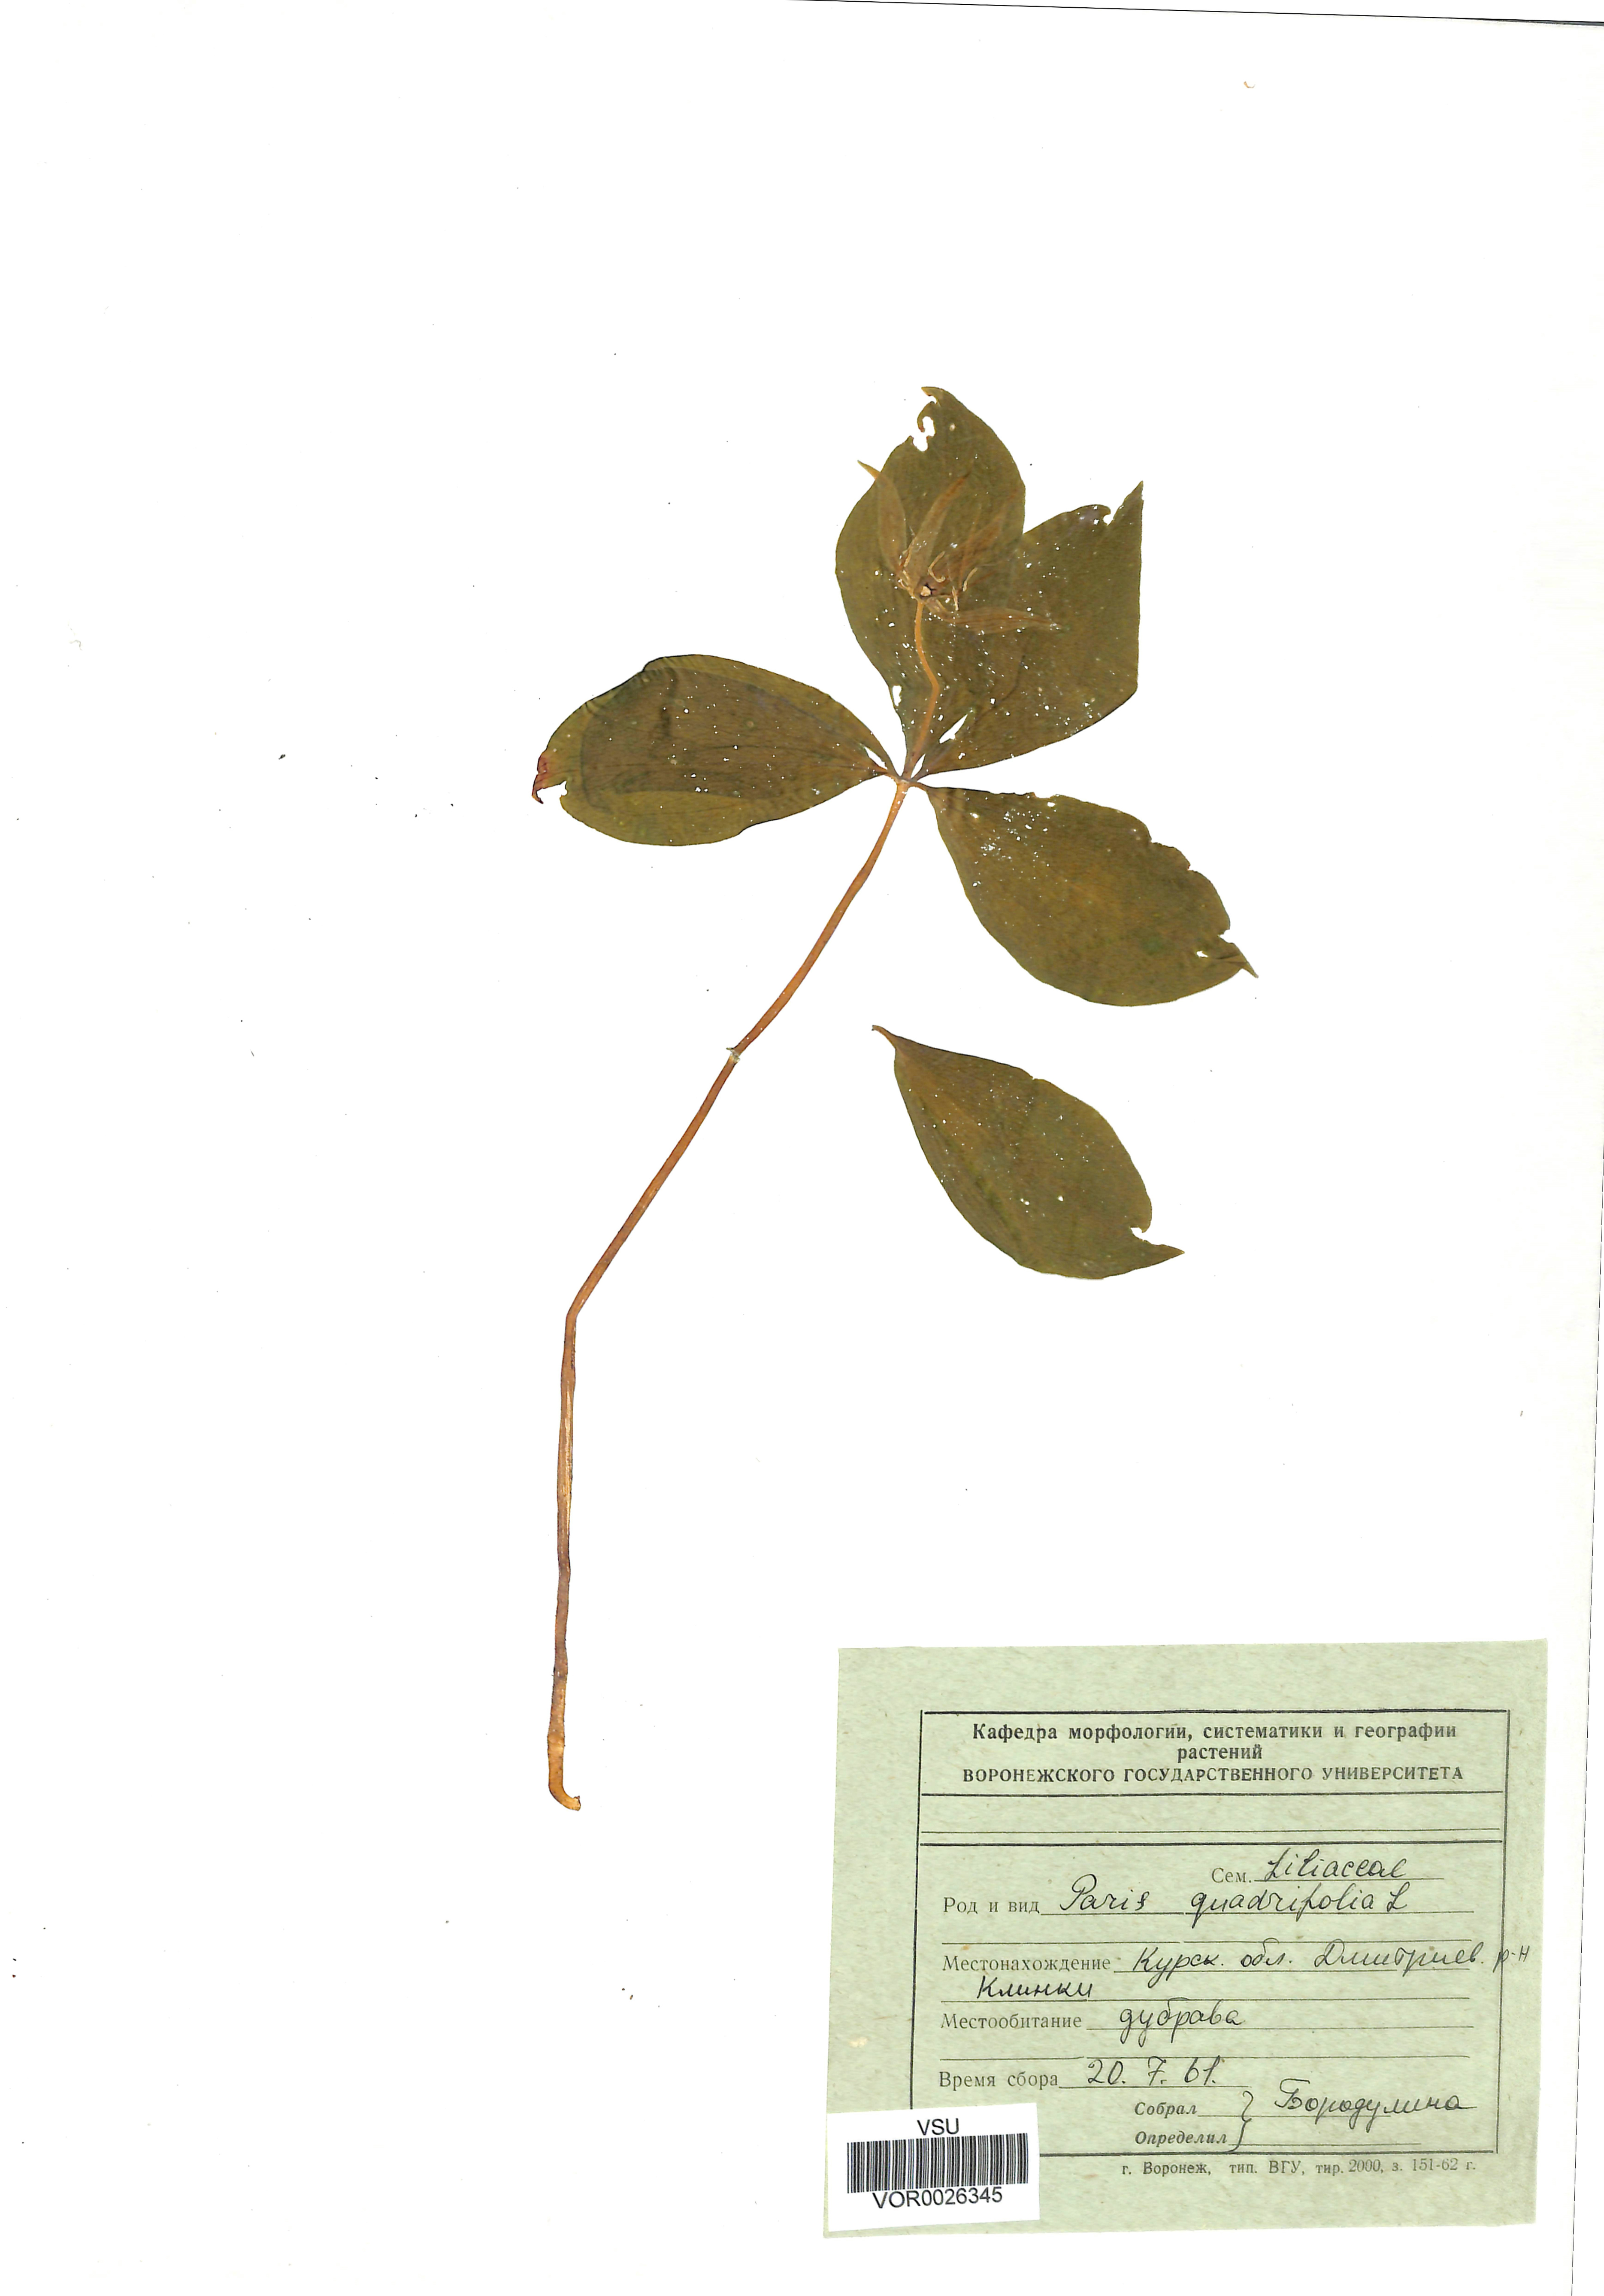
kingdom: Plantae
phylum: Tracheophyta
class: Liliopsida
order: Liliales
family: Melanthiaceae
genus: Paris
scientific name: Paris quadrifolia
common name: Herb-paris
